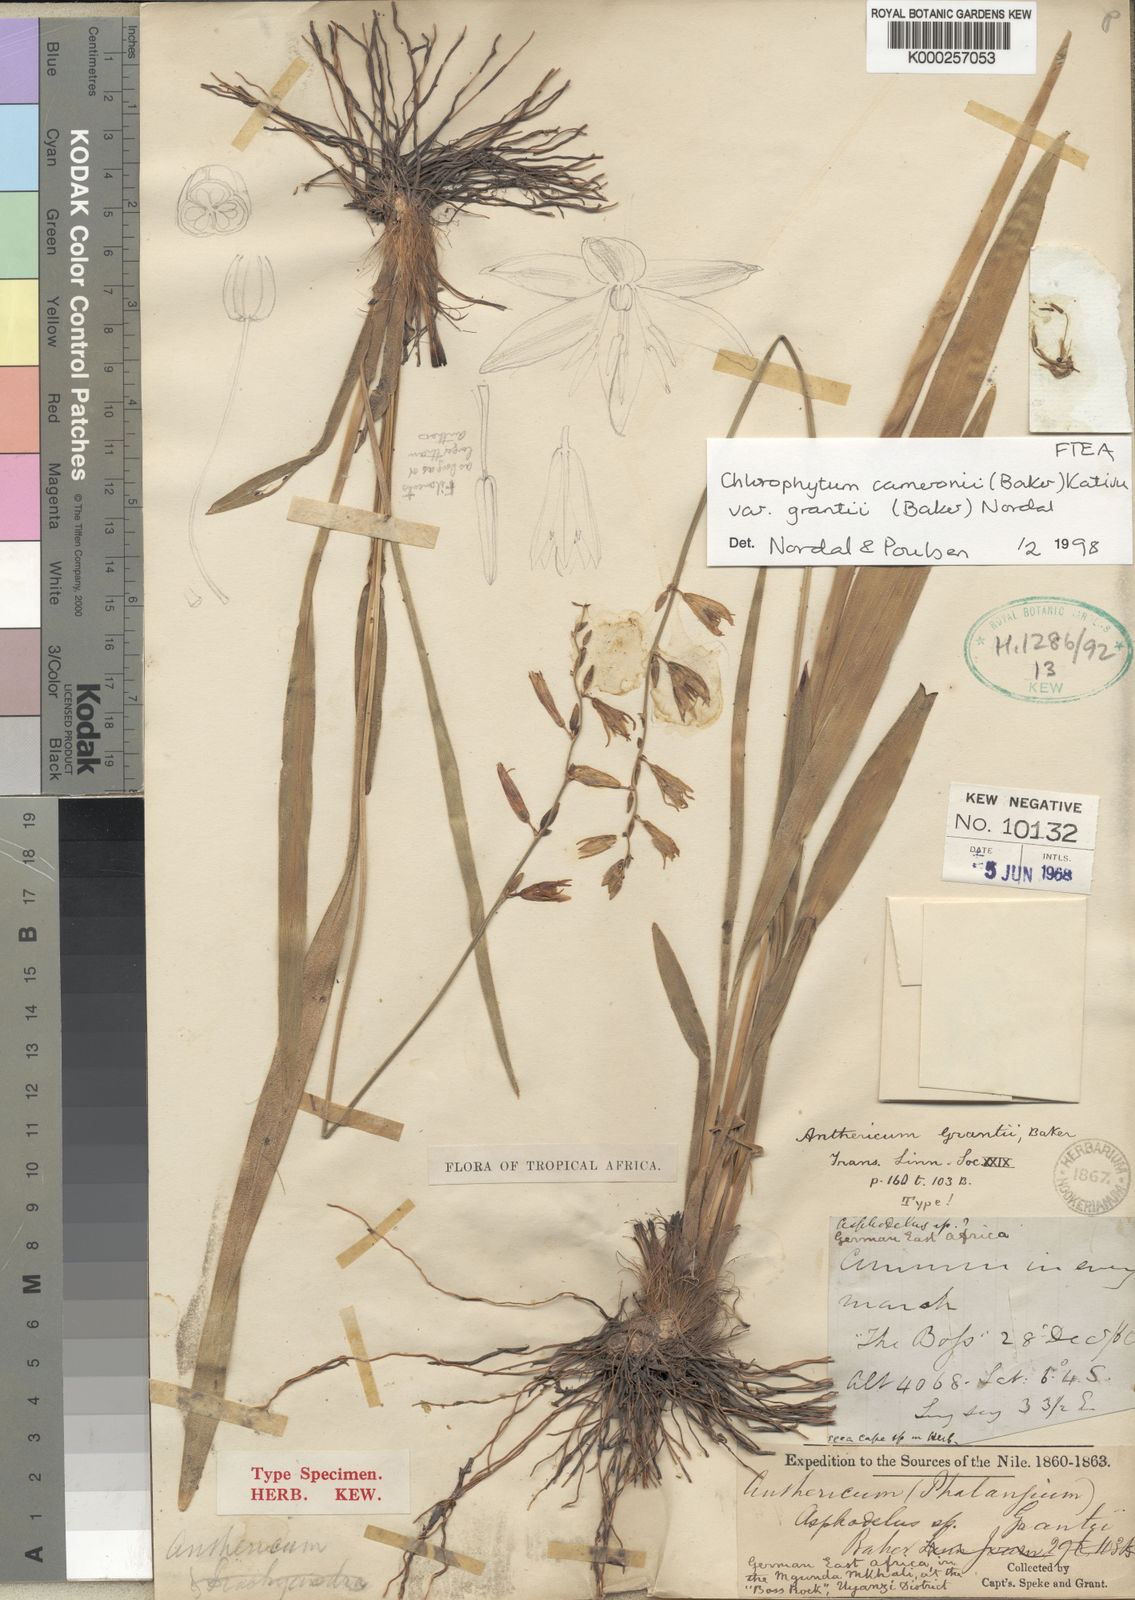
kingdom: Plantae
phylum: Tracheophyta
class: Liliopsida
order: Asparagales
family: Asparagaceae
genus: Chlorophytum
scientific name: Chlorophytum cameronii
